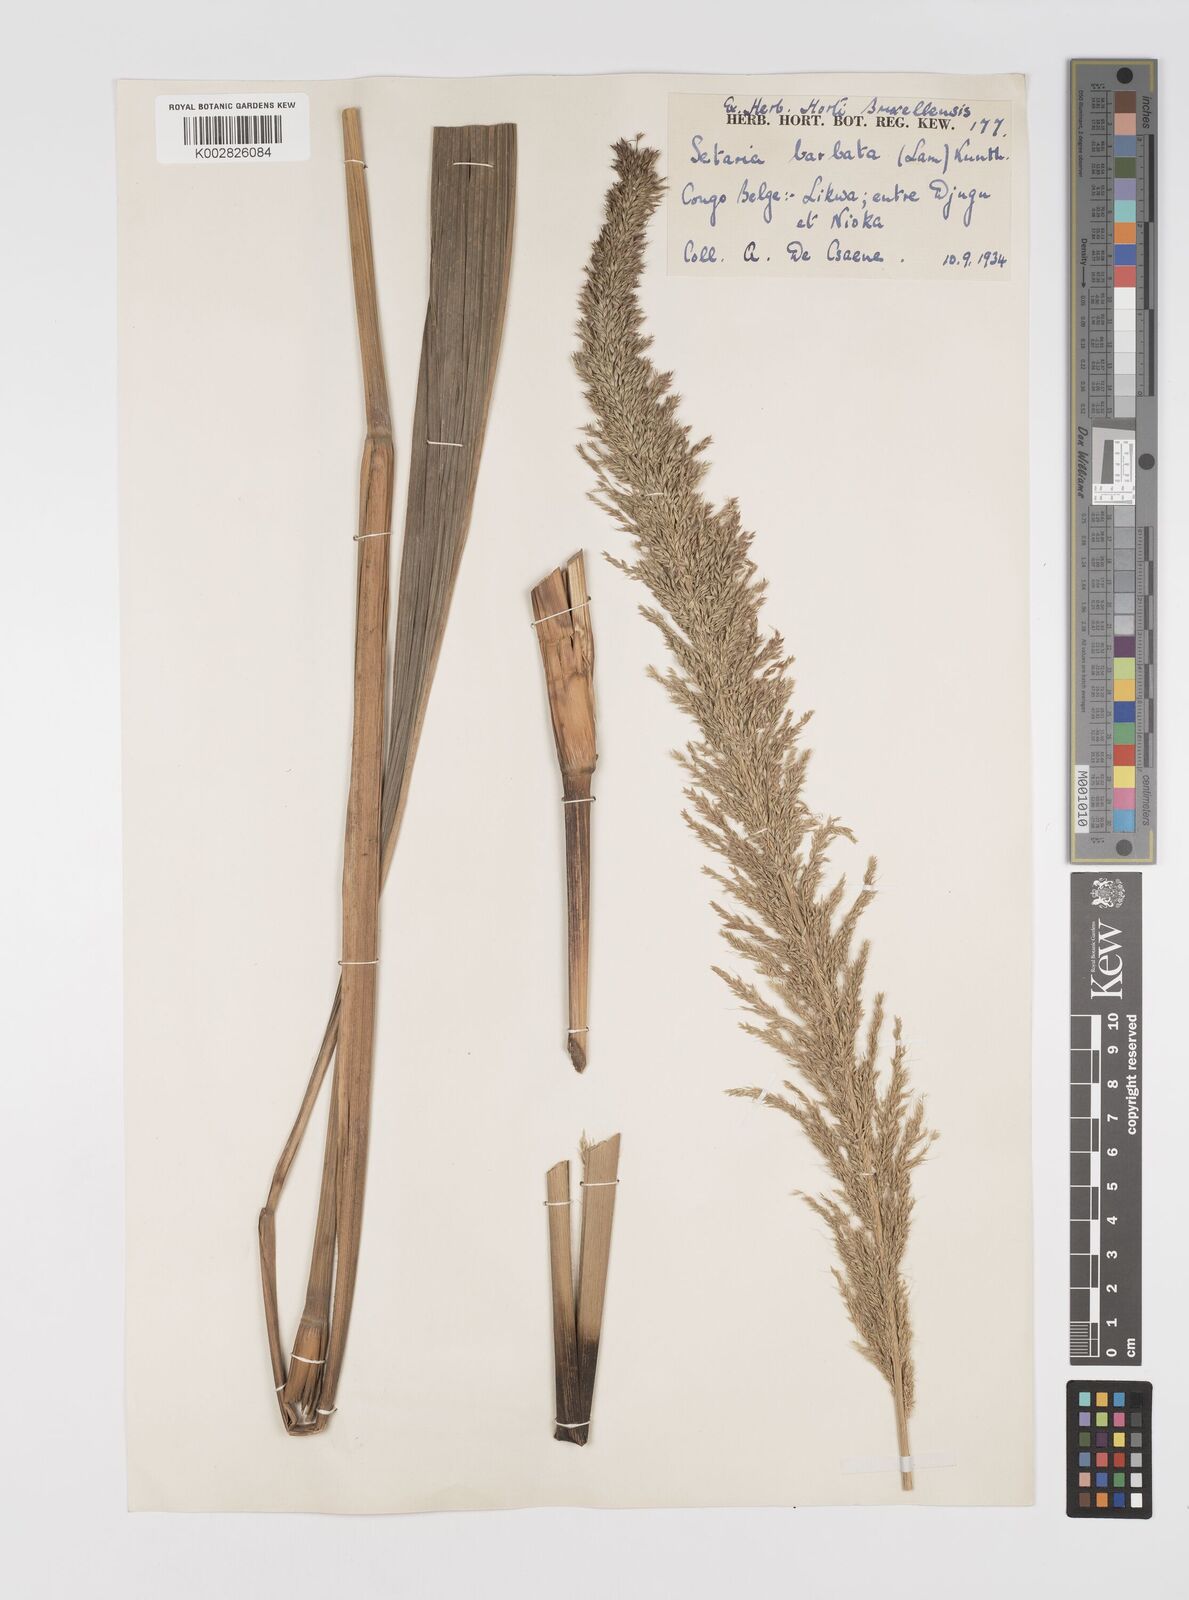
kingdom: Plantae
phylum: Tracheophyta
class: Liliopsida
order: Poales
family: Poaceae
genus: Setaria
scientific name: Setaria poiretiana
